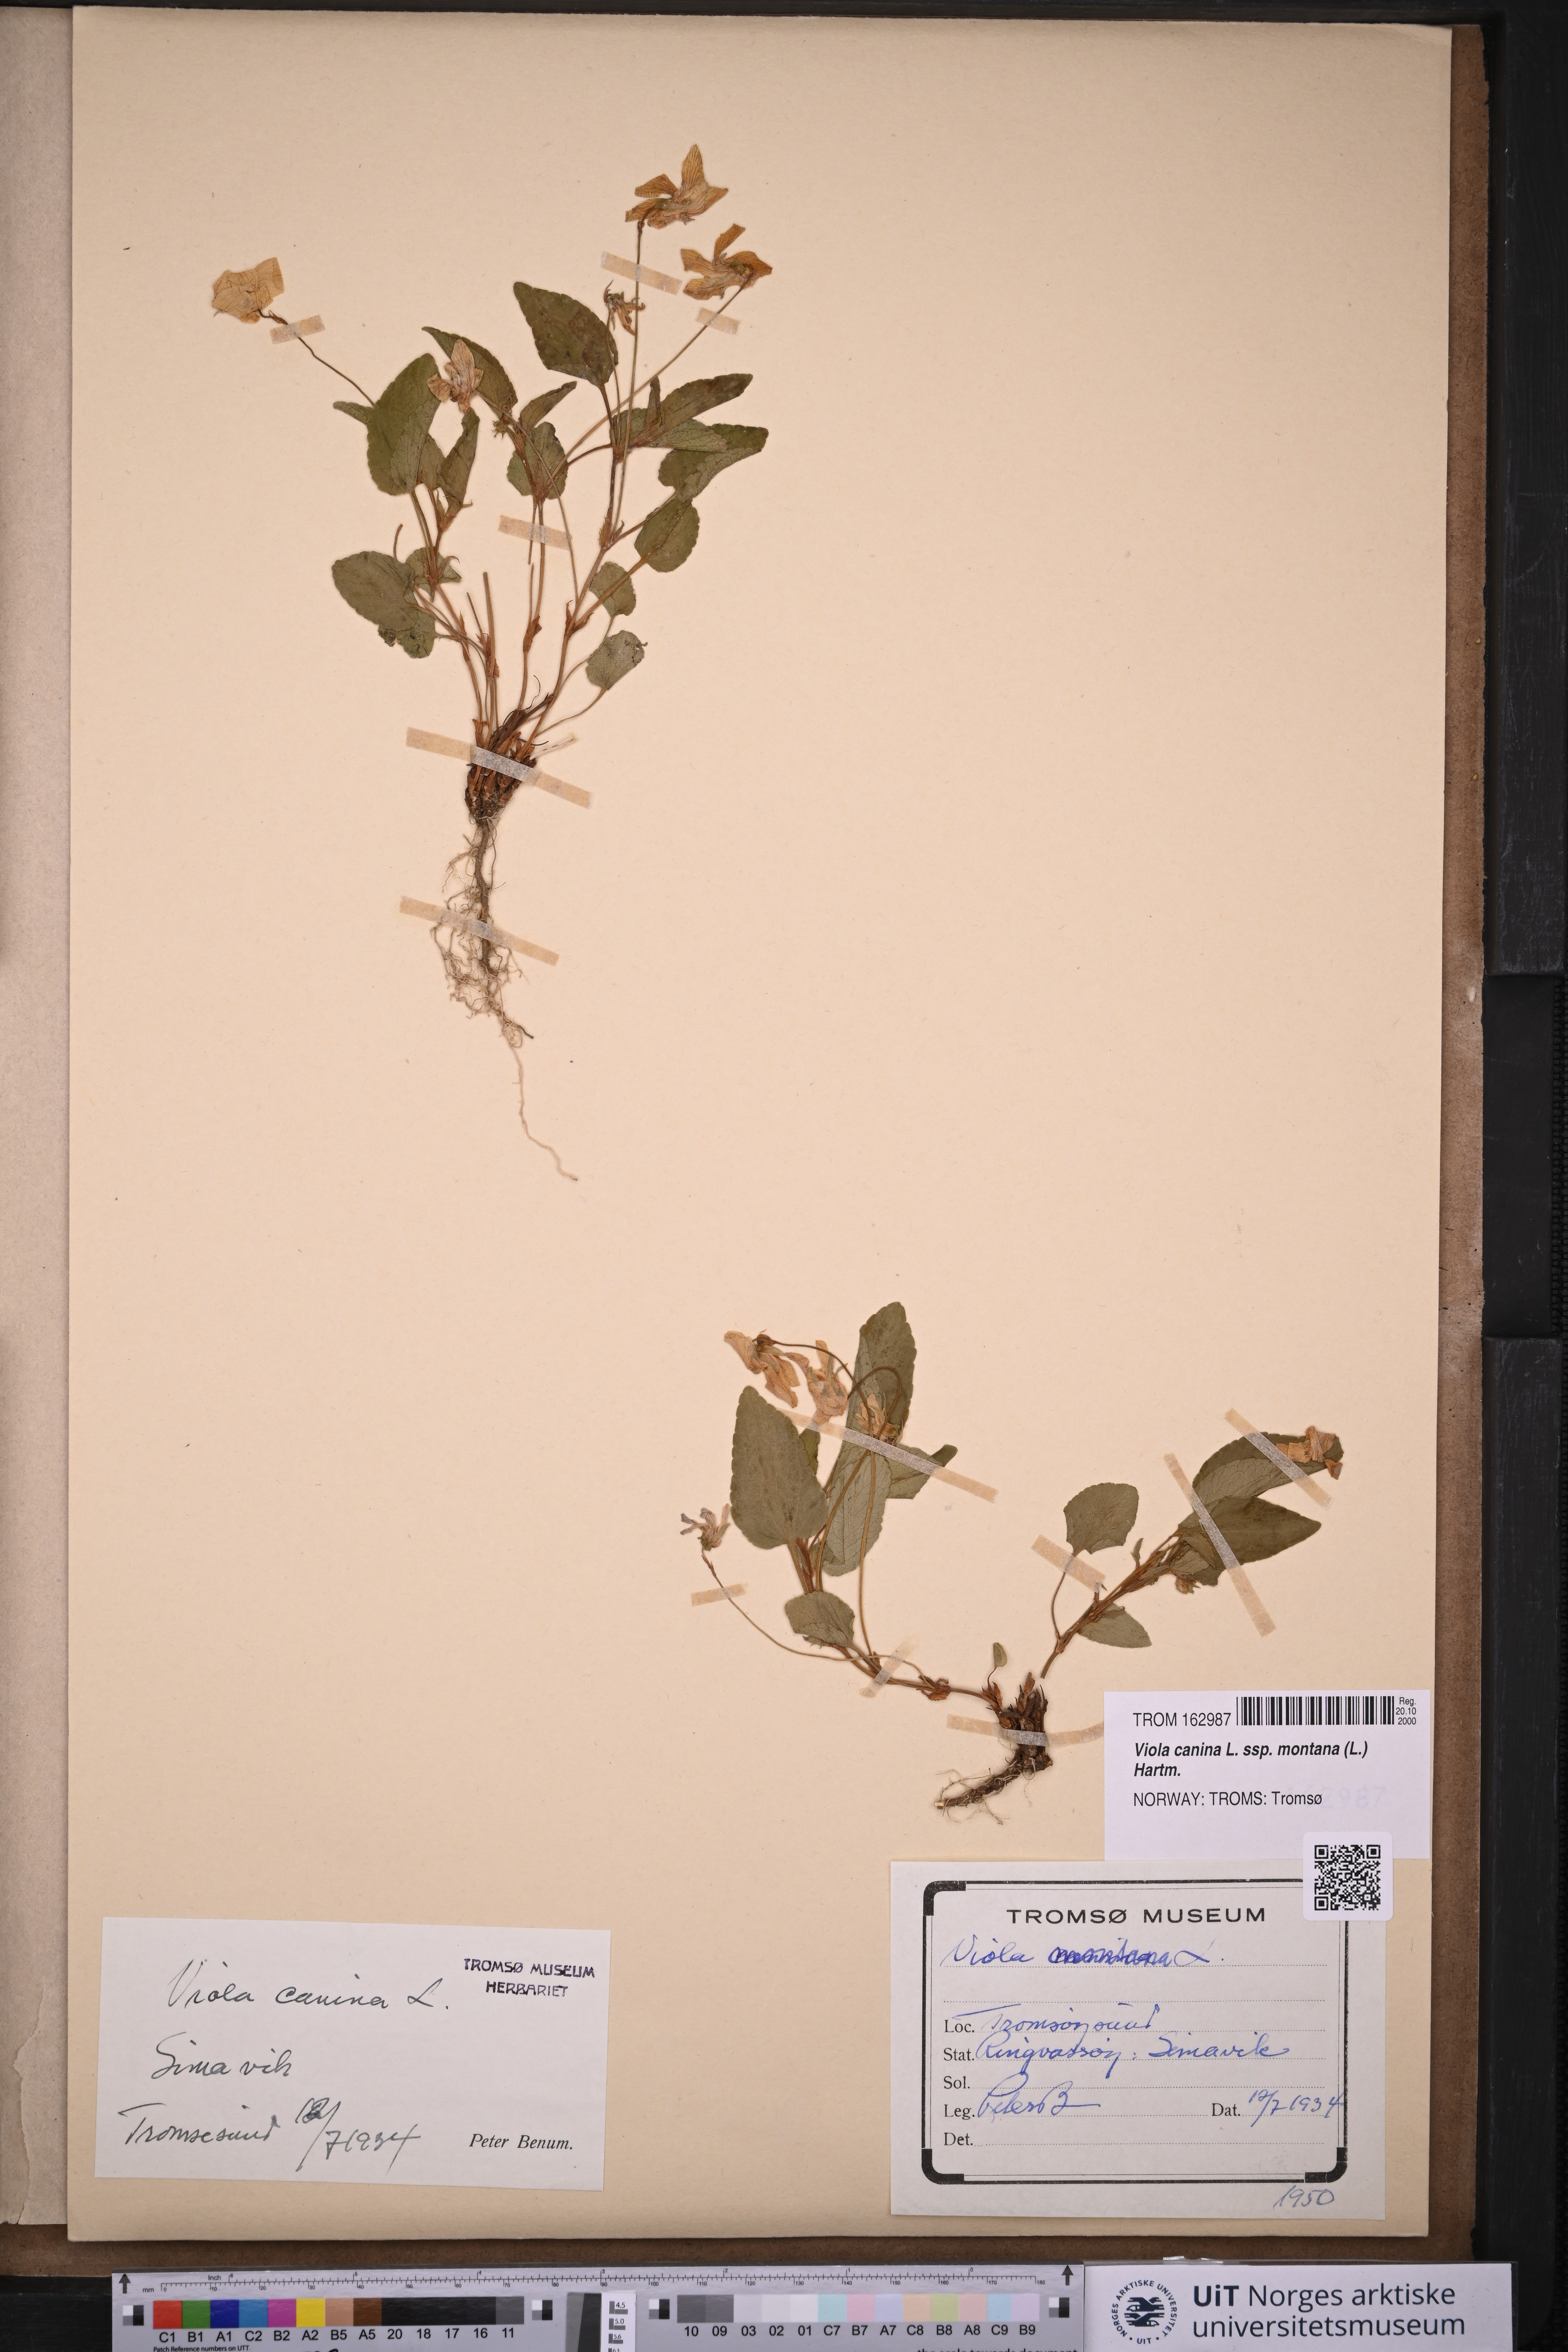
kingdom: Plantae
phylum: Tracheophyta
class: Magnoliopsida
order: Malpighiales
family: Violaceae
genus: Viola
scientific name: Viola ruppii
